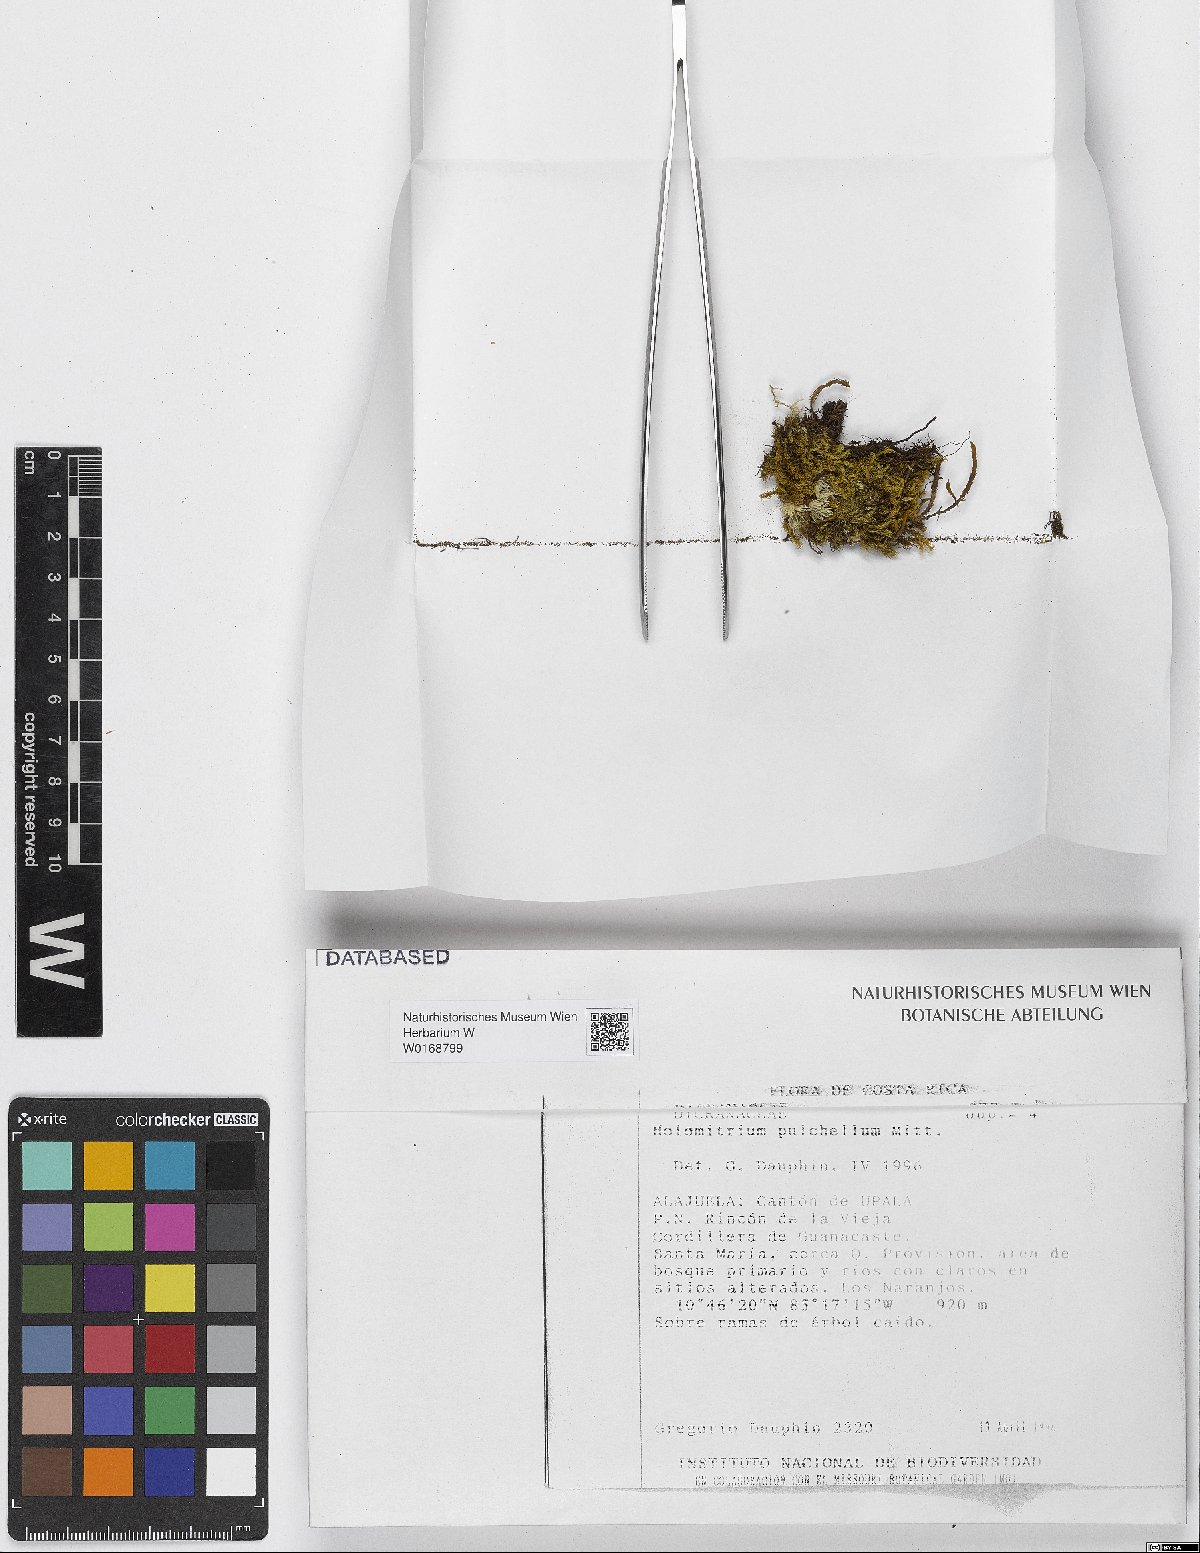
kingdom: Plantae
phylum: Bryophyta
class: Bryopsida
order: Dicranales
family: Dicranaceae
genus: Holomitrium
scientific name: Holomitrium pulchellum
